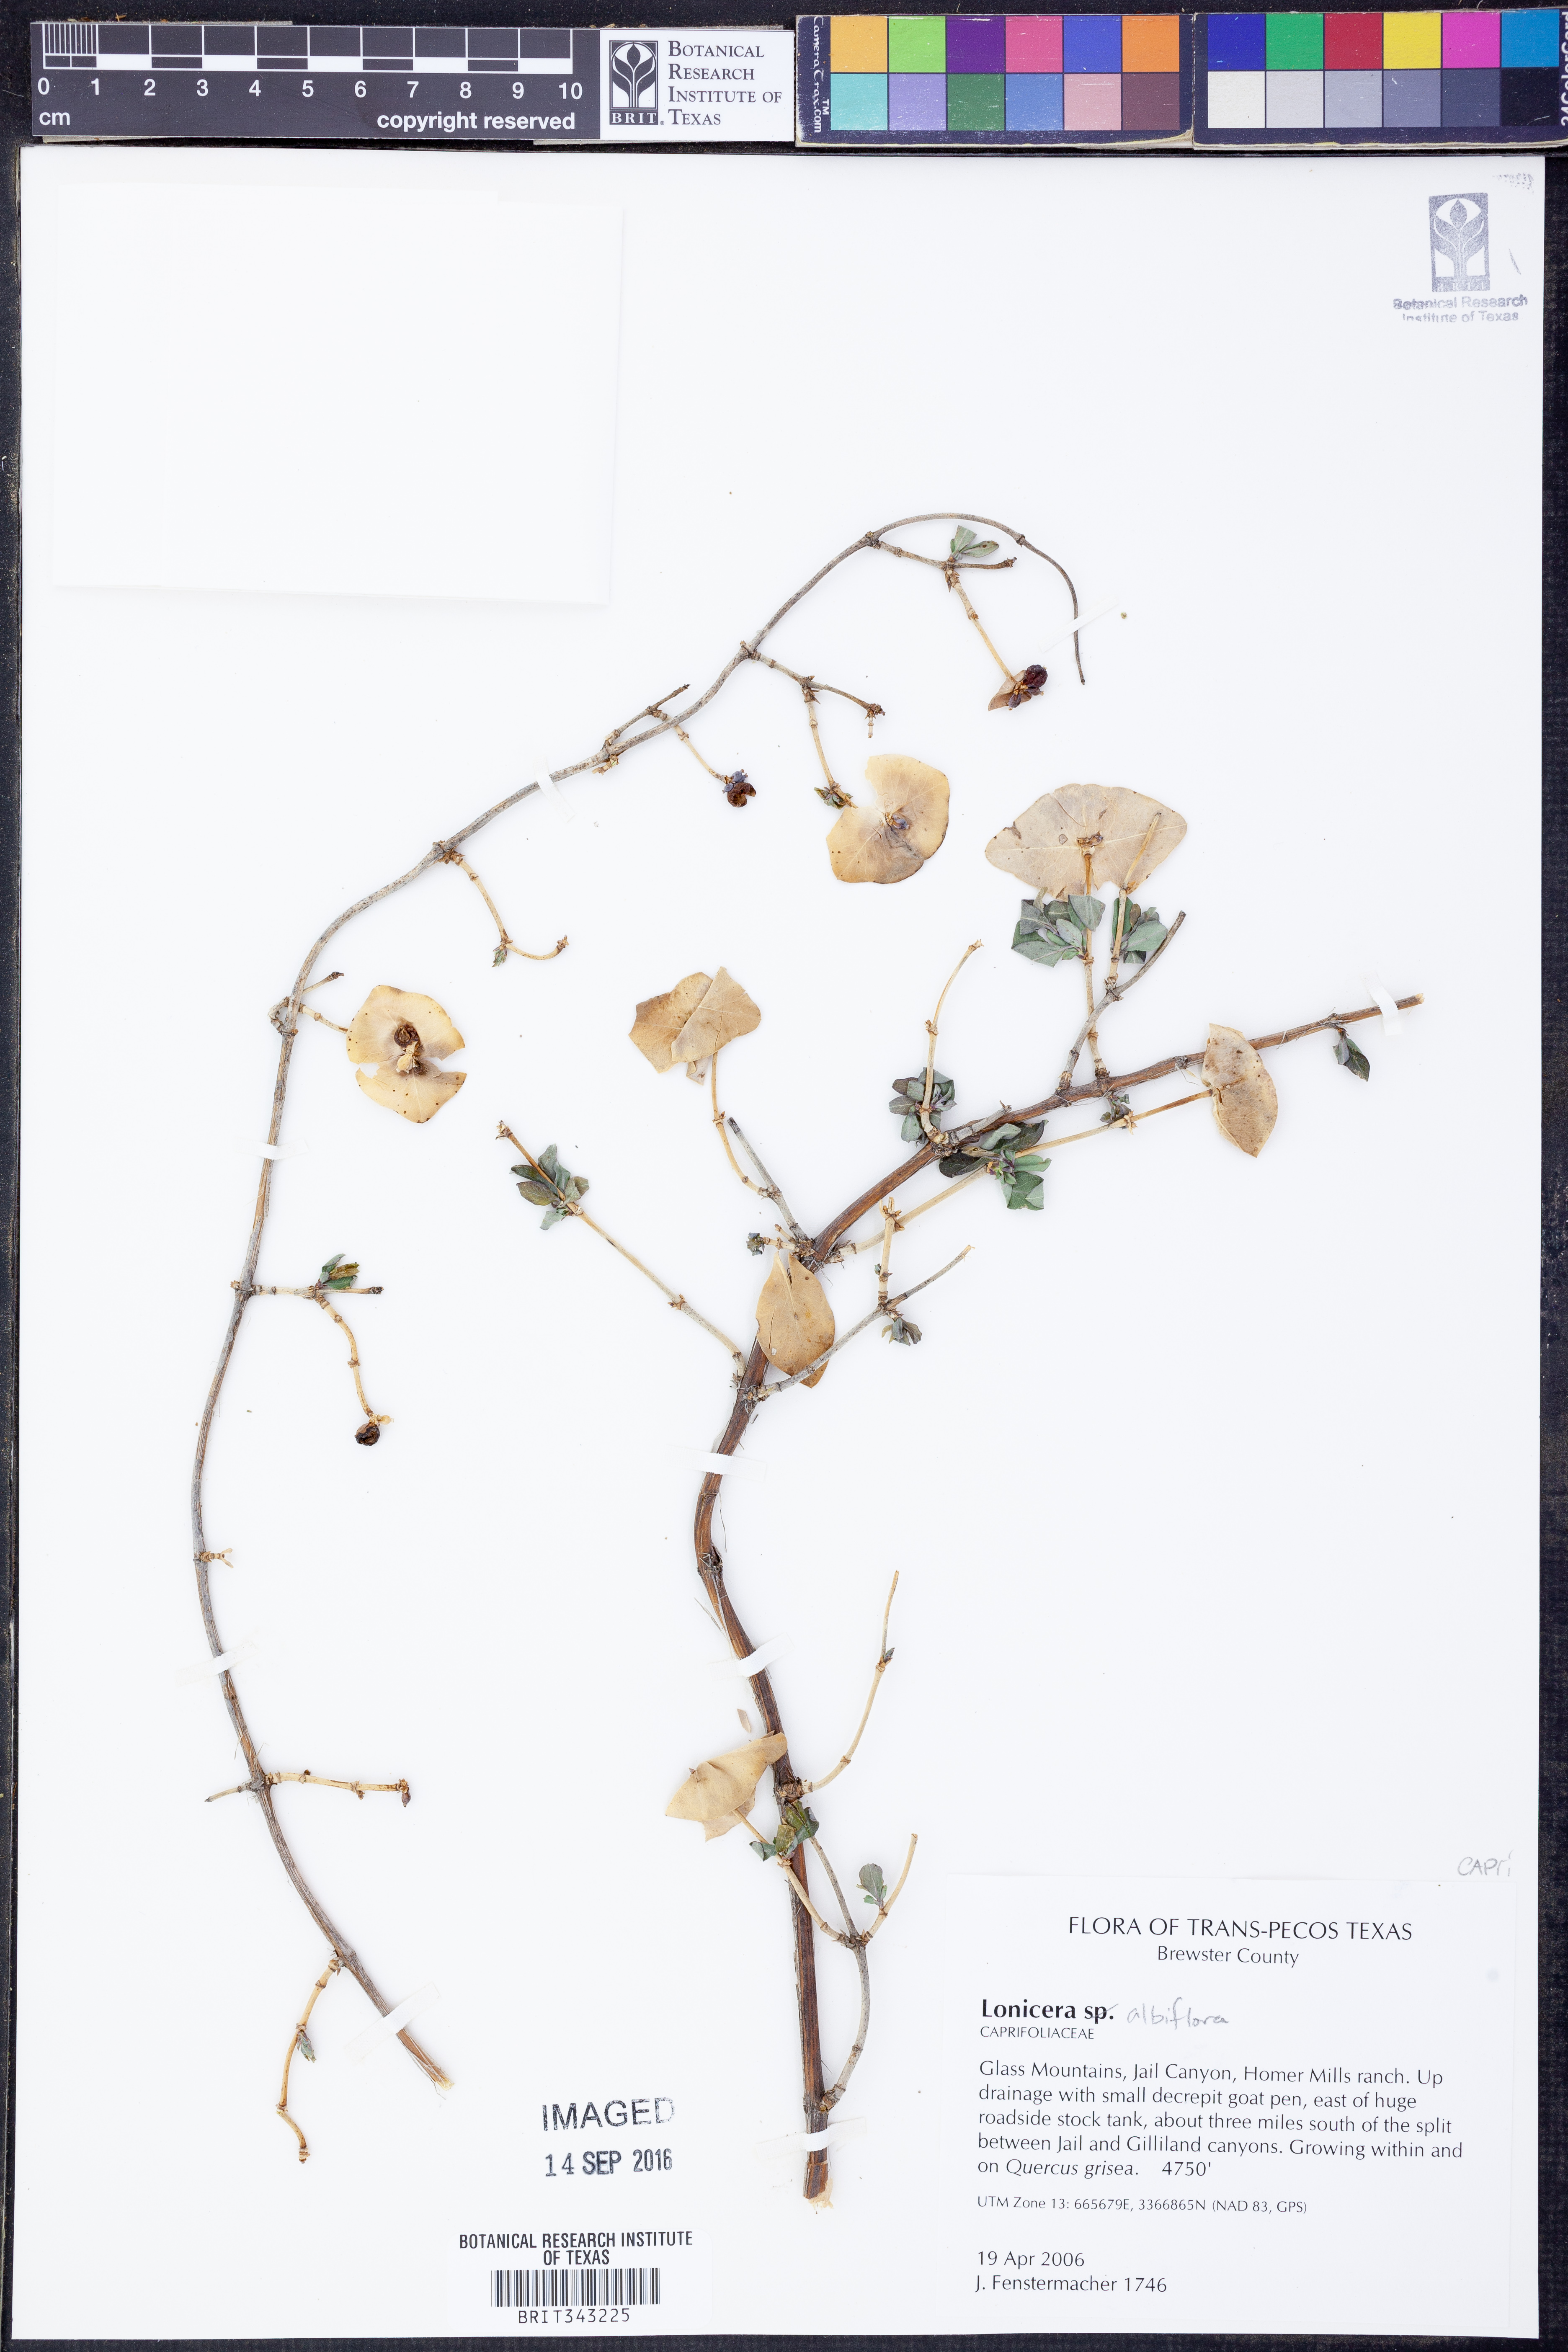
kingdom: Plantae
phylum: Tracheophyta
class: Magnoliopsida
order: Dipsacales
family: Caprifoliaceae
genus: Lonicera
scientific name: Lonicera albiflora
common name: White honeysuckle
